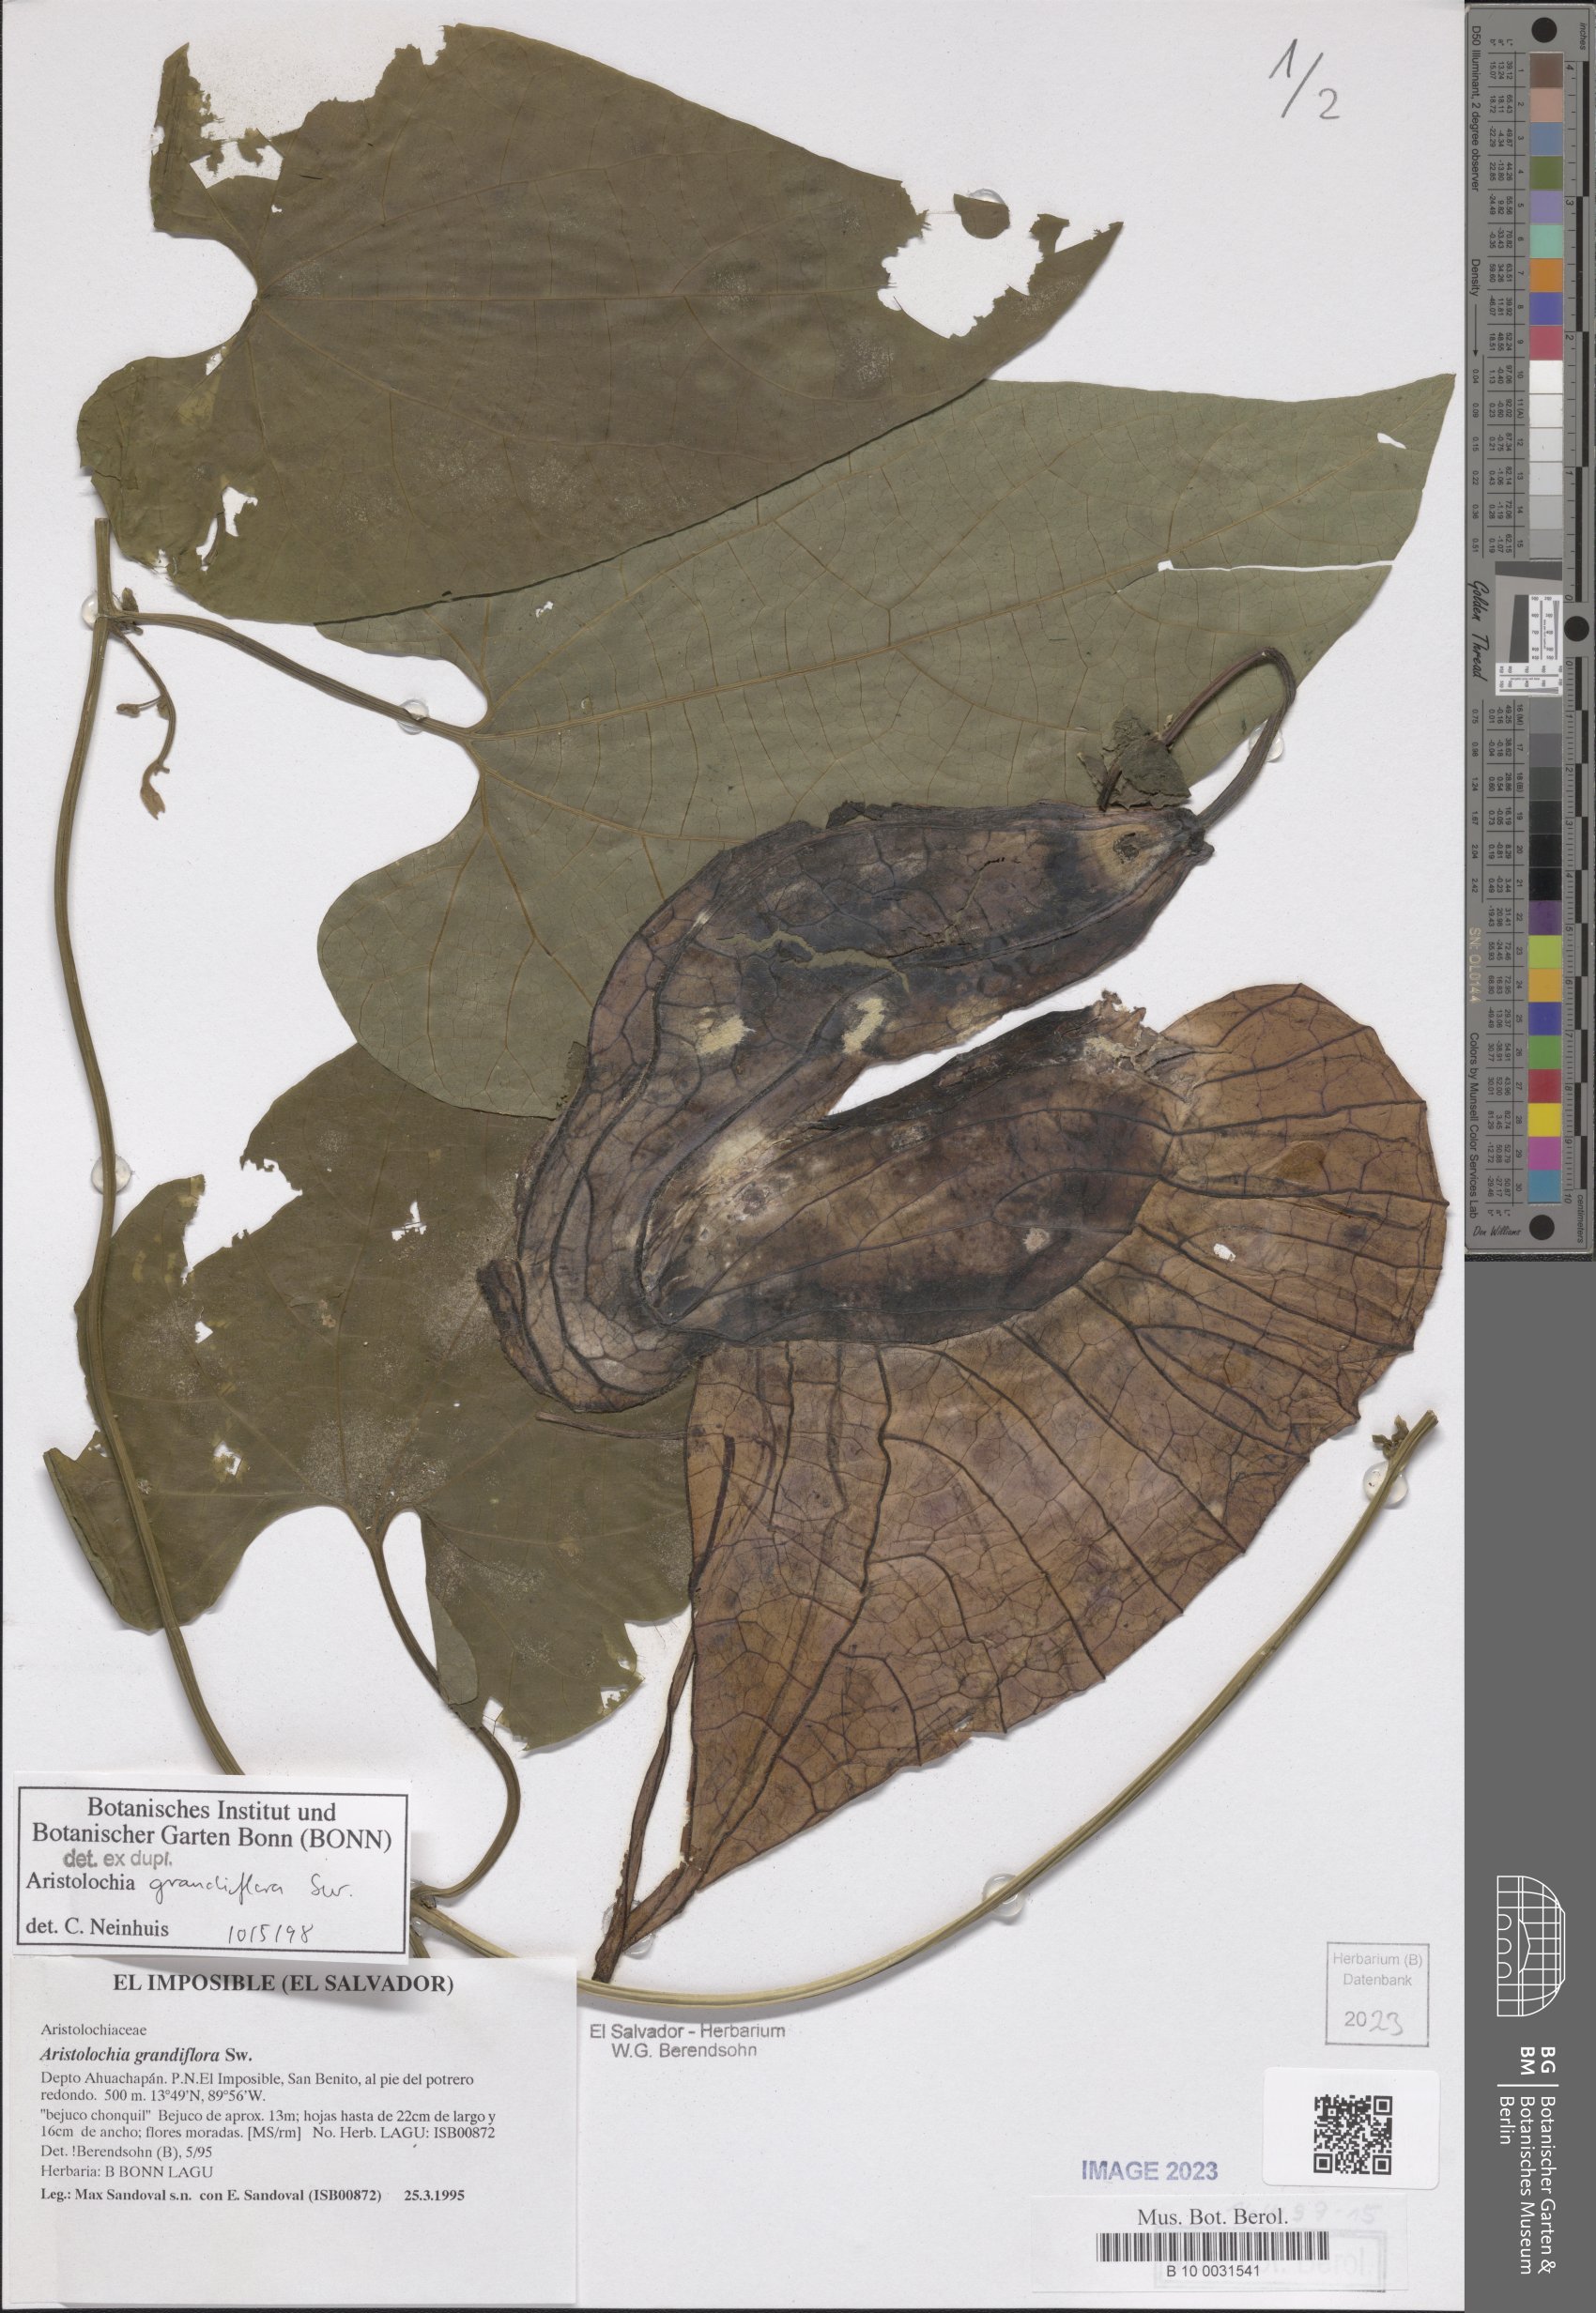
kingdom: Plantae
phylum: Tracheophyta
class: Magnoliopsida
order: Piperales
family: Aristolochiaceae
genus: Aristolochia
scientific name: Aristolochia grandiflora
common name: Pelicanflower
